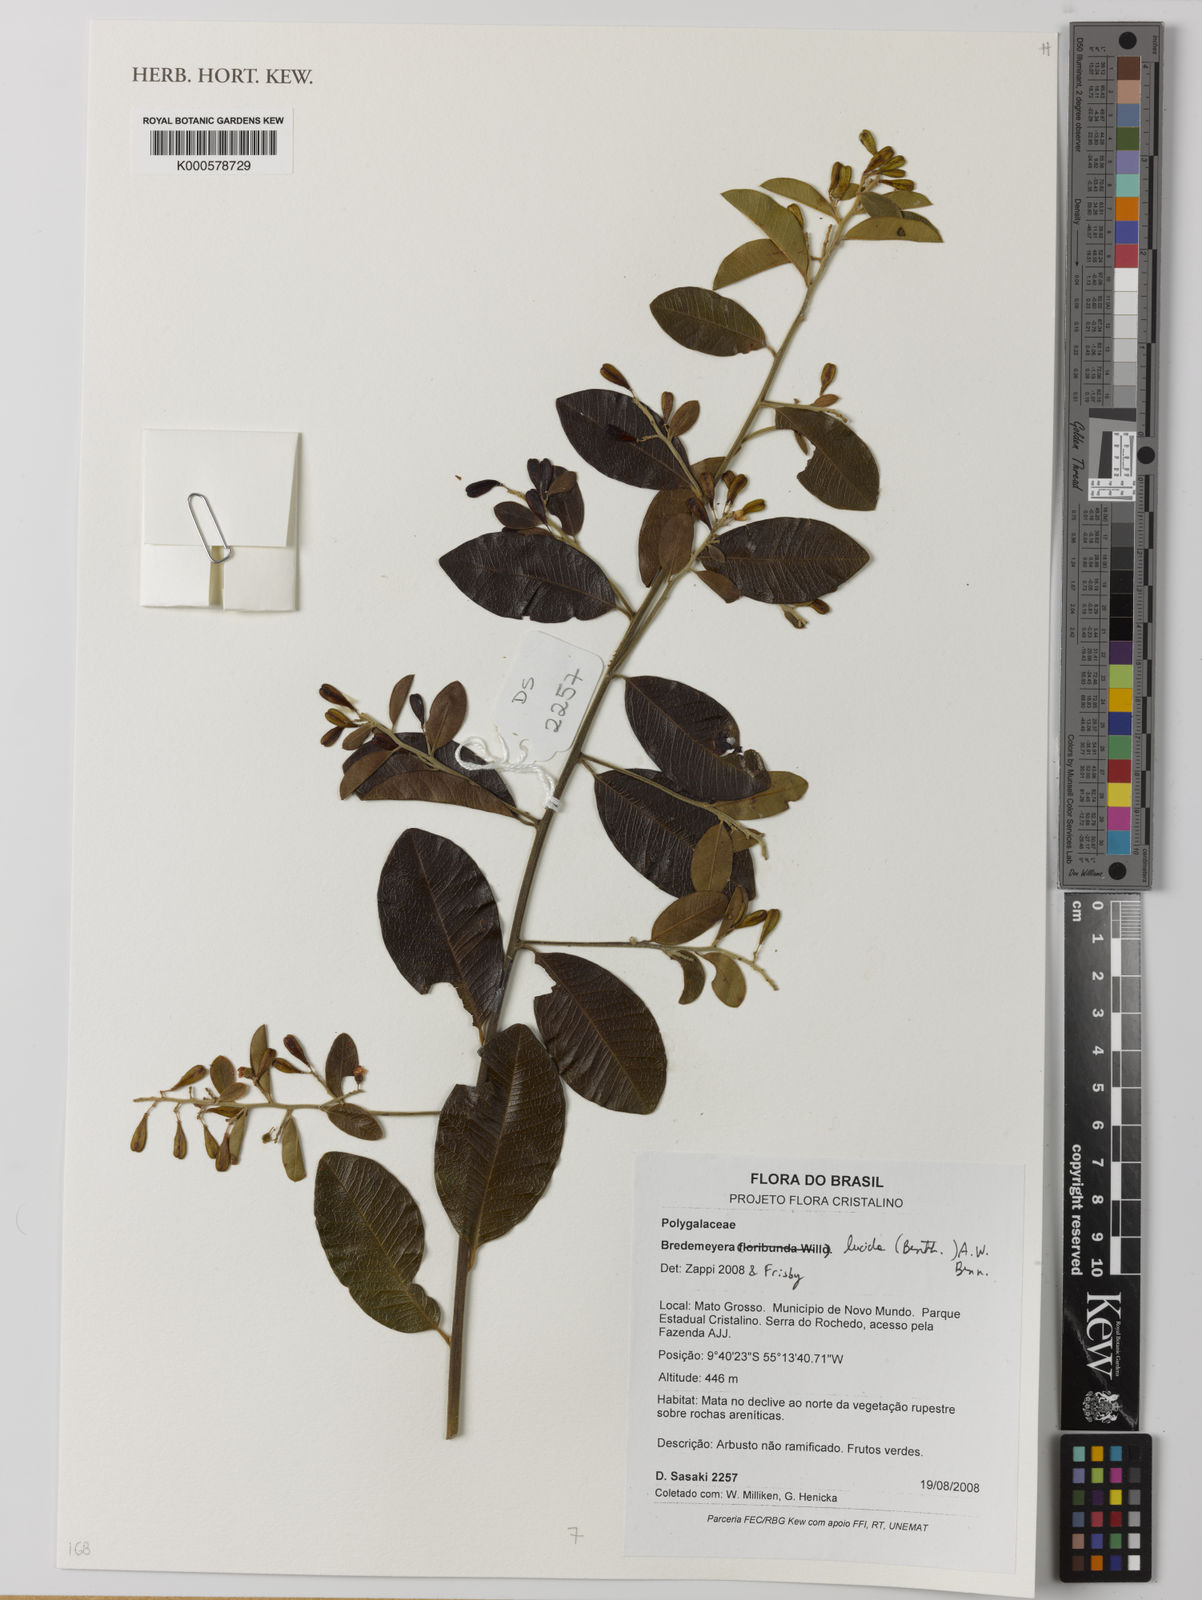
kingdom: Plantae
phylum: Tracheophyta
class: Magnoliopsida
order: Fabales
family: Polygalaceae
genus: Bredemeyera
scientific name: Bredemeyera
